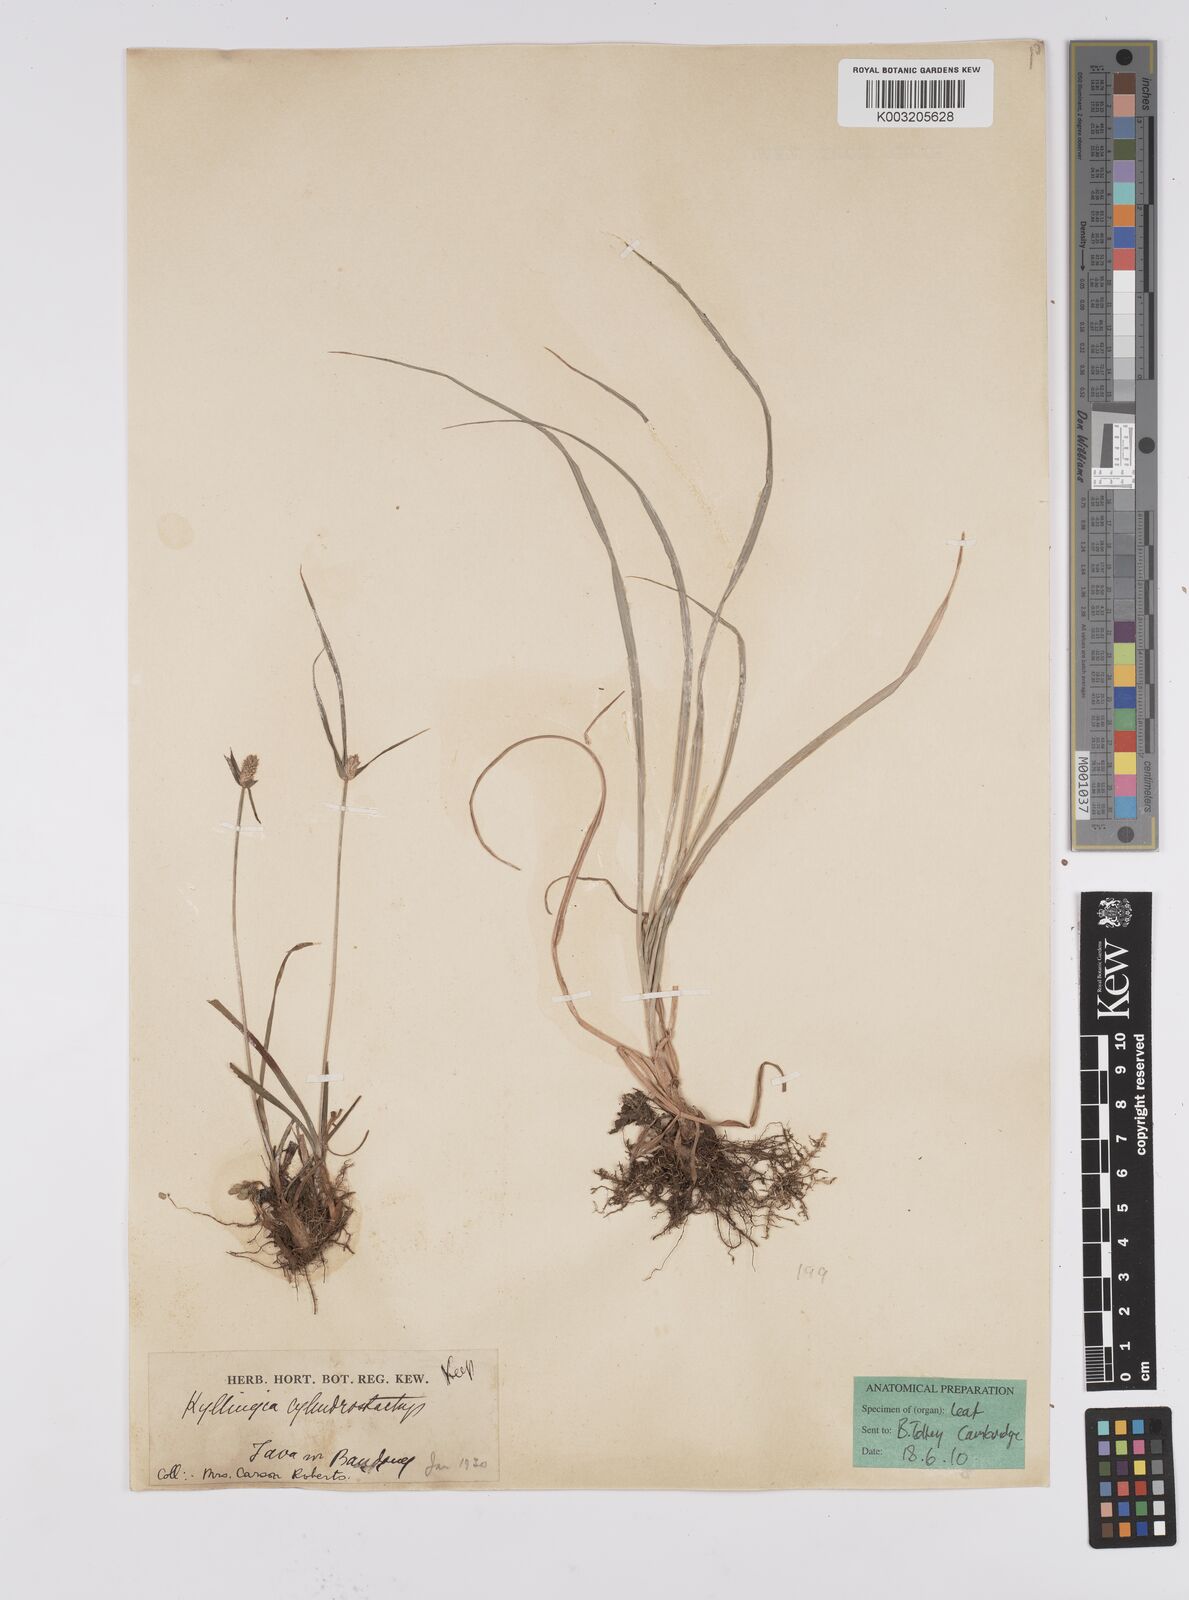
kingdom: Plantae
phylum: Tracheophyta
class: Liliopsida
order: Poales
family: Cyperaceae
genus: Cyperus
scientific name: Cyperus
